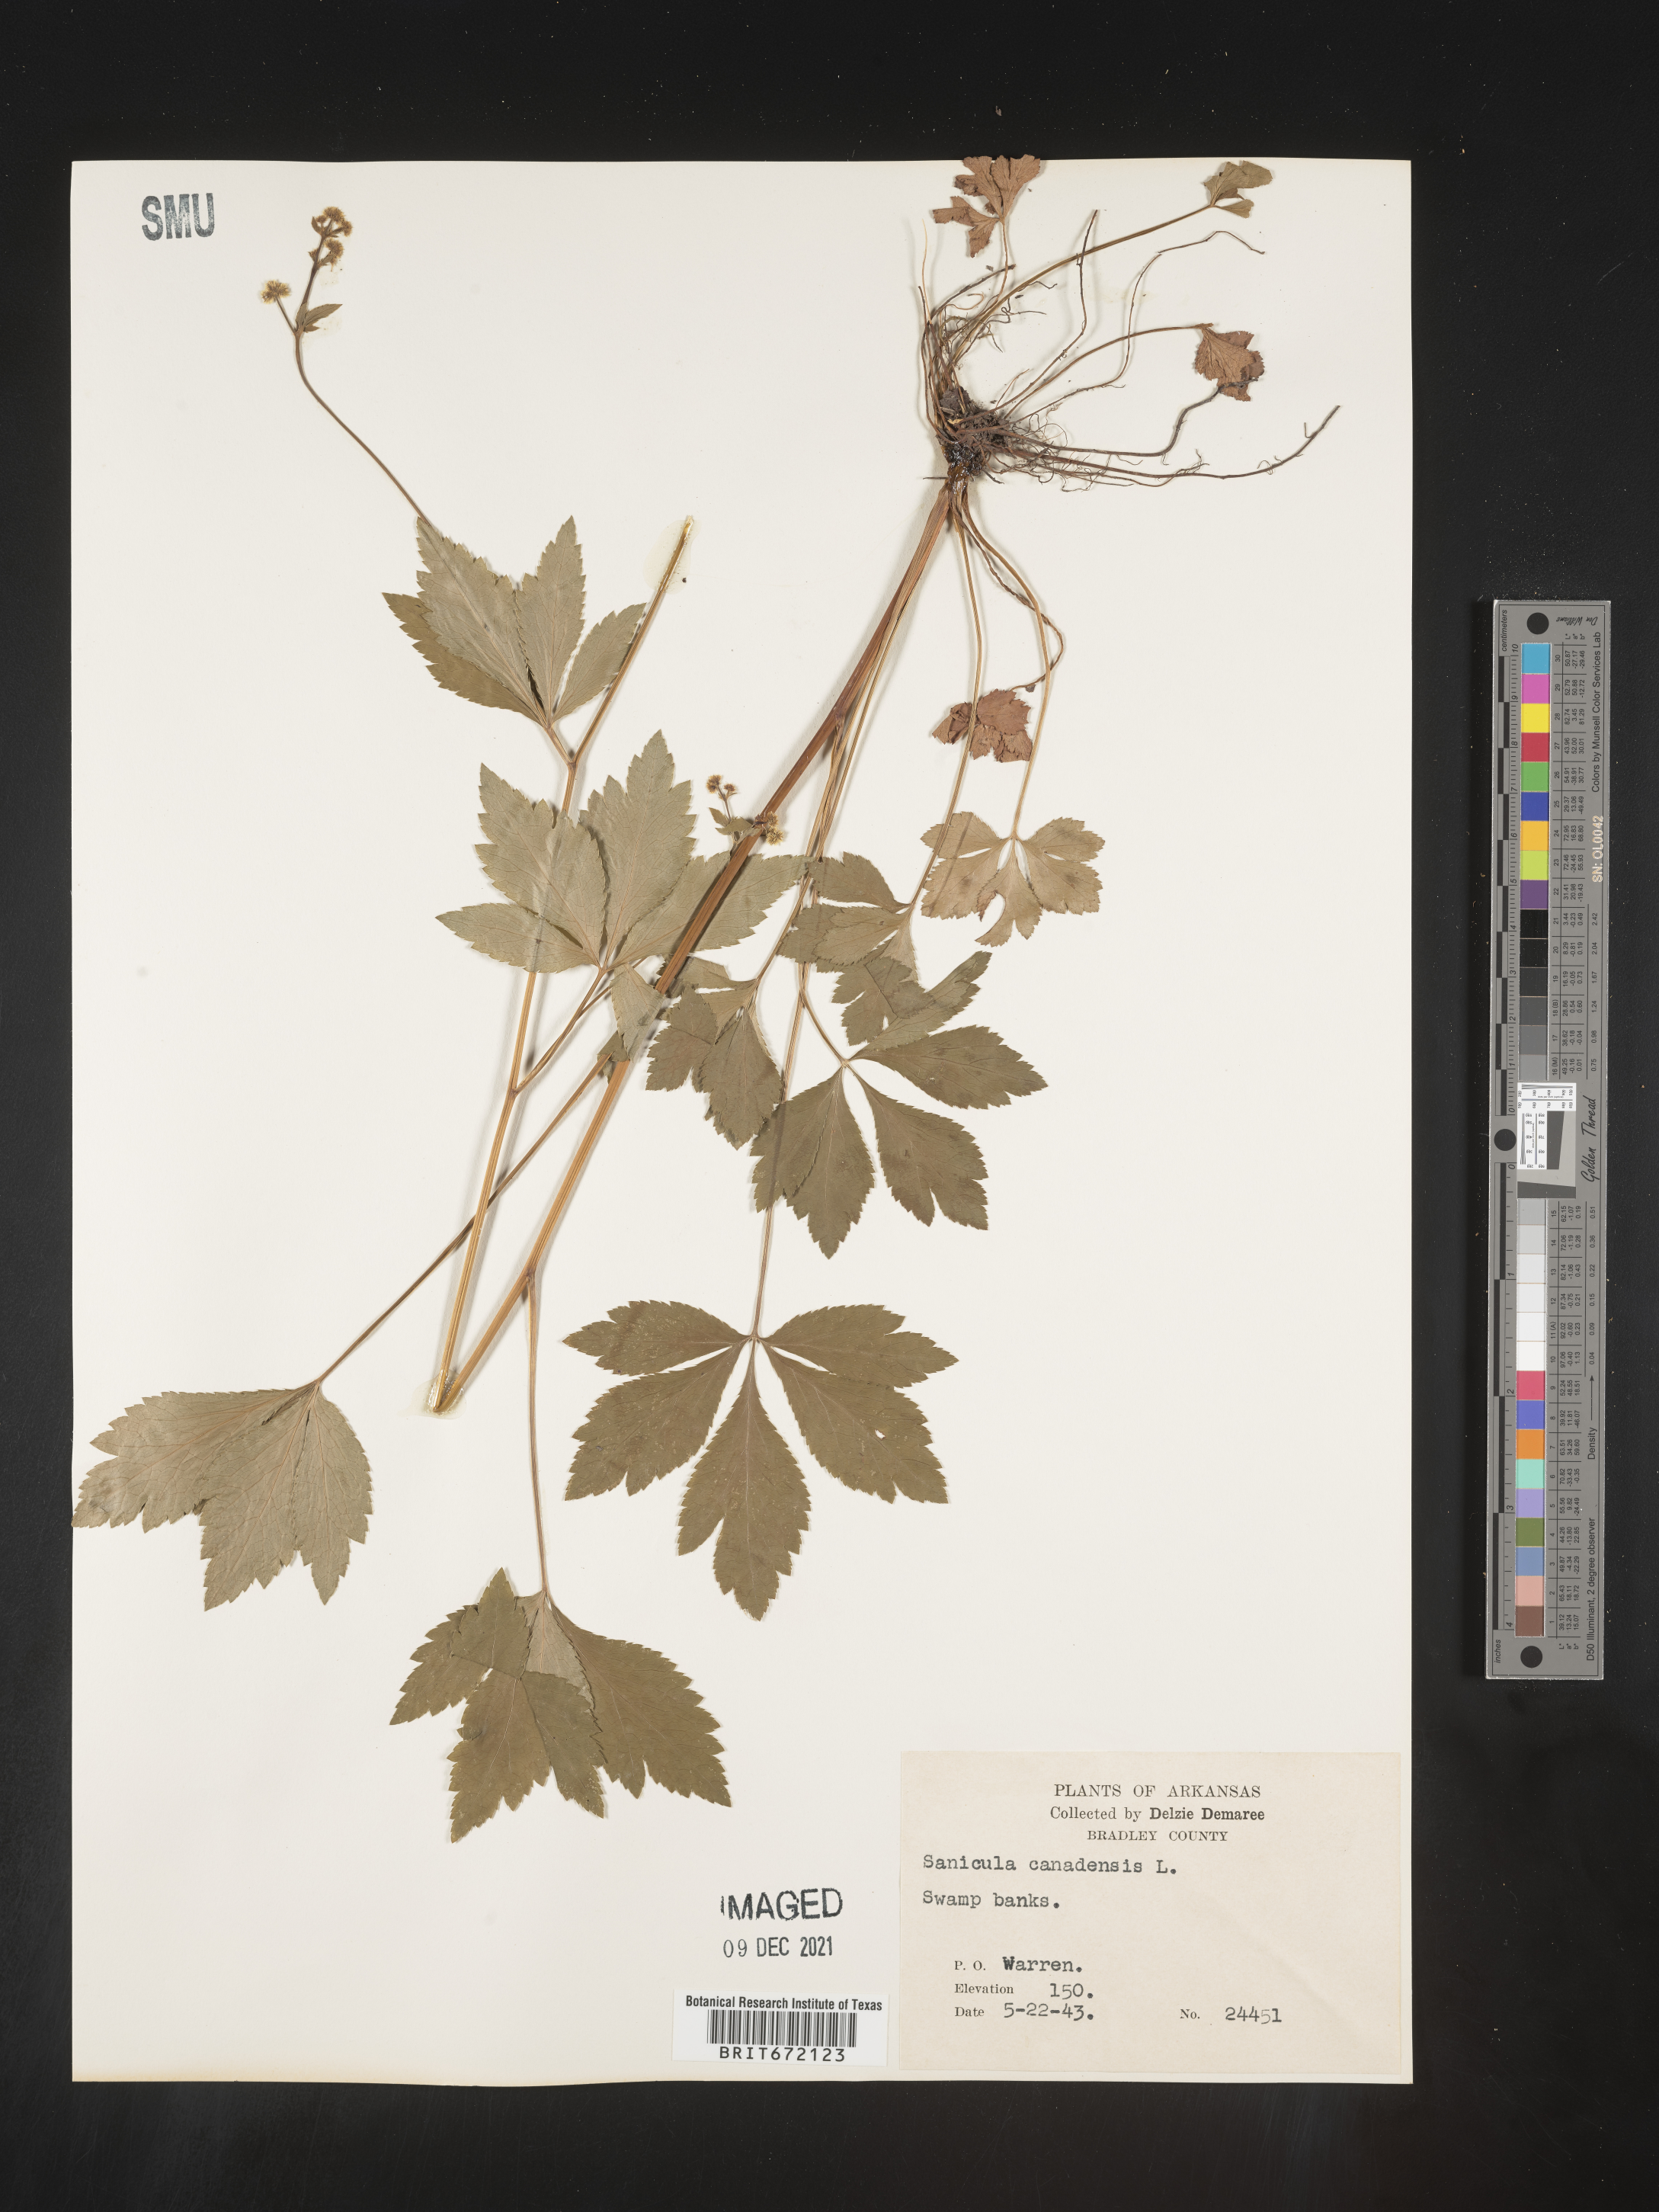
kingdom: Plantae
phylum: Tracheophyta
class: Magnoliopsida
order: Apiales
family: Apiaceae
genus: Sanicula
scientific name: Sanicula canadensis
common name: Canada sanicle
